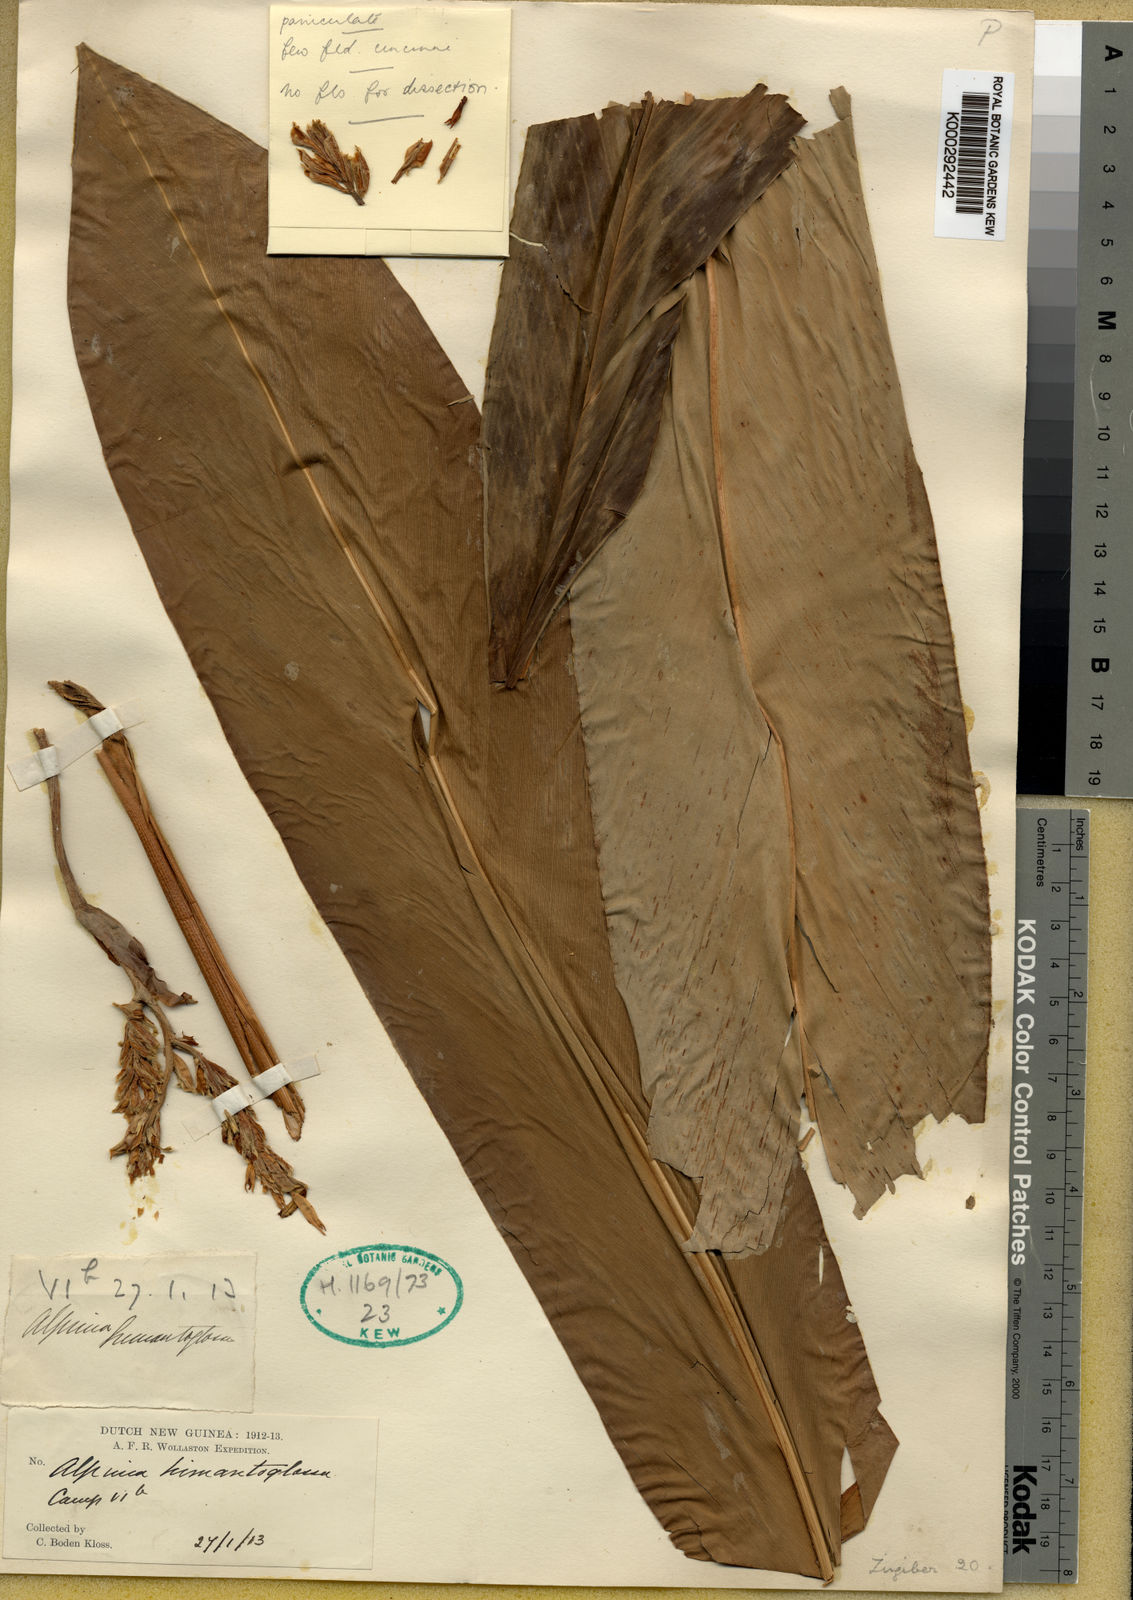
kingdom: Plantae
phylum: Tracheophyta
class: Liliopsida
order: Zingiberales
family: Zingiberaceae
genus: Alpinia
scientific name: Alpinia himantoglossa
